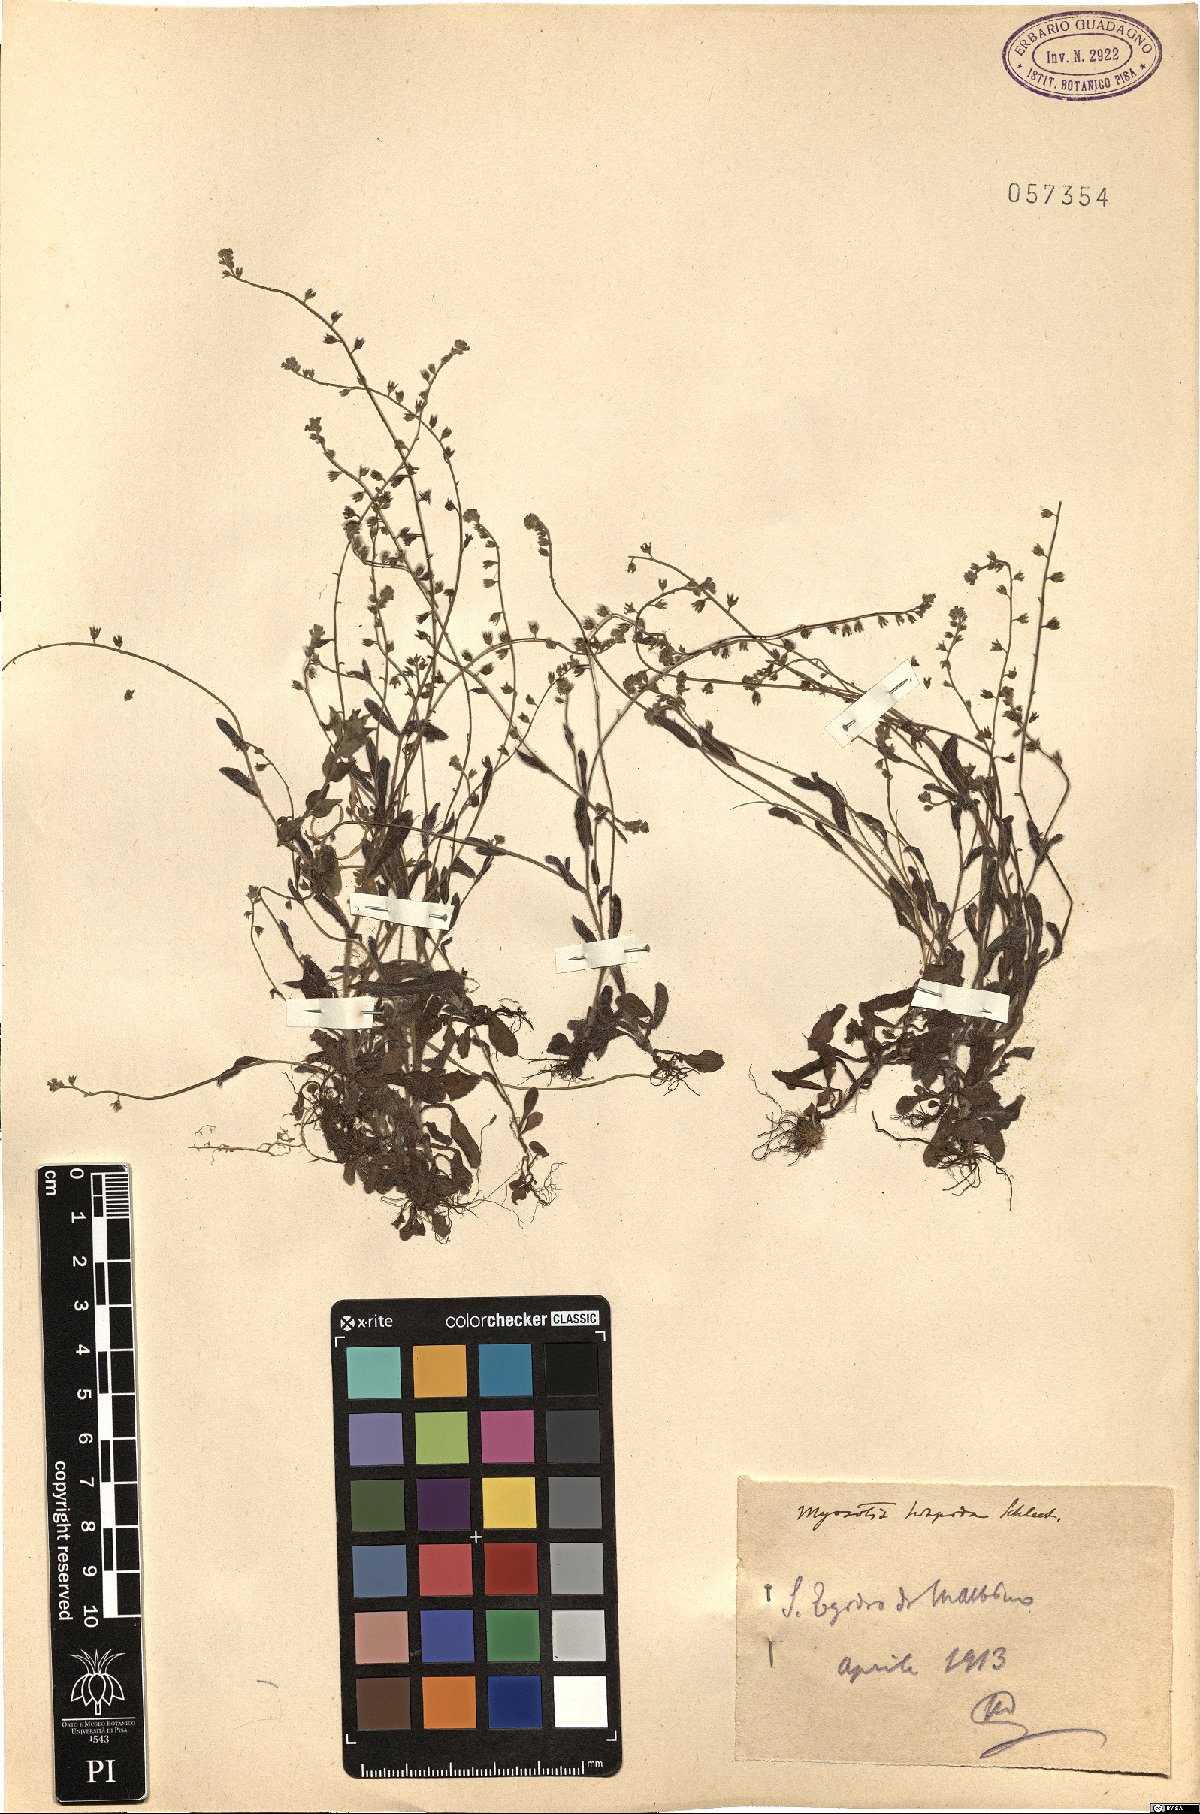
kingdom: Plantae
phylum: Tracheophyta
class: Magnoliopsida
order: Boraginales
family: Boraginaceae
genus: Myosotis
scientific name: Myosotis ramosissima
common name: Early forget-me-not
